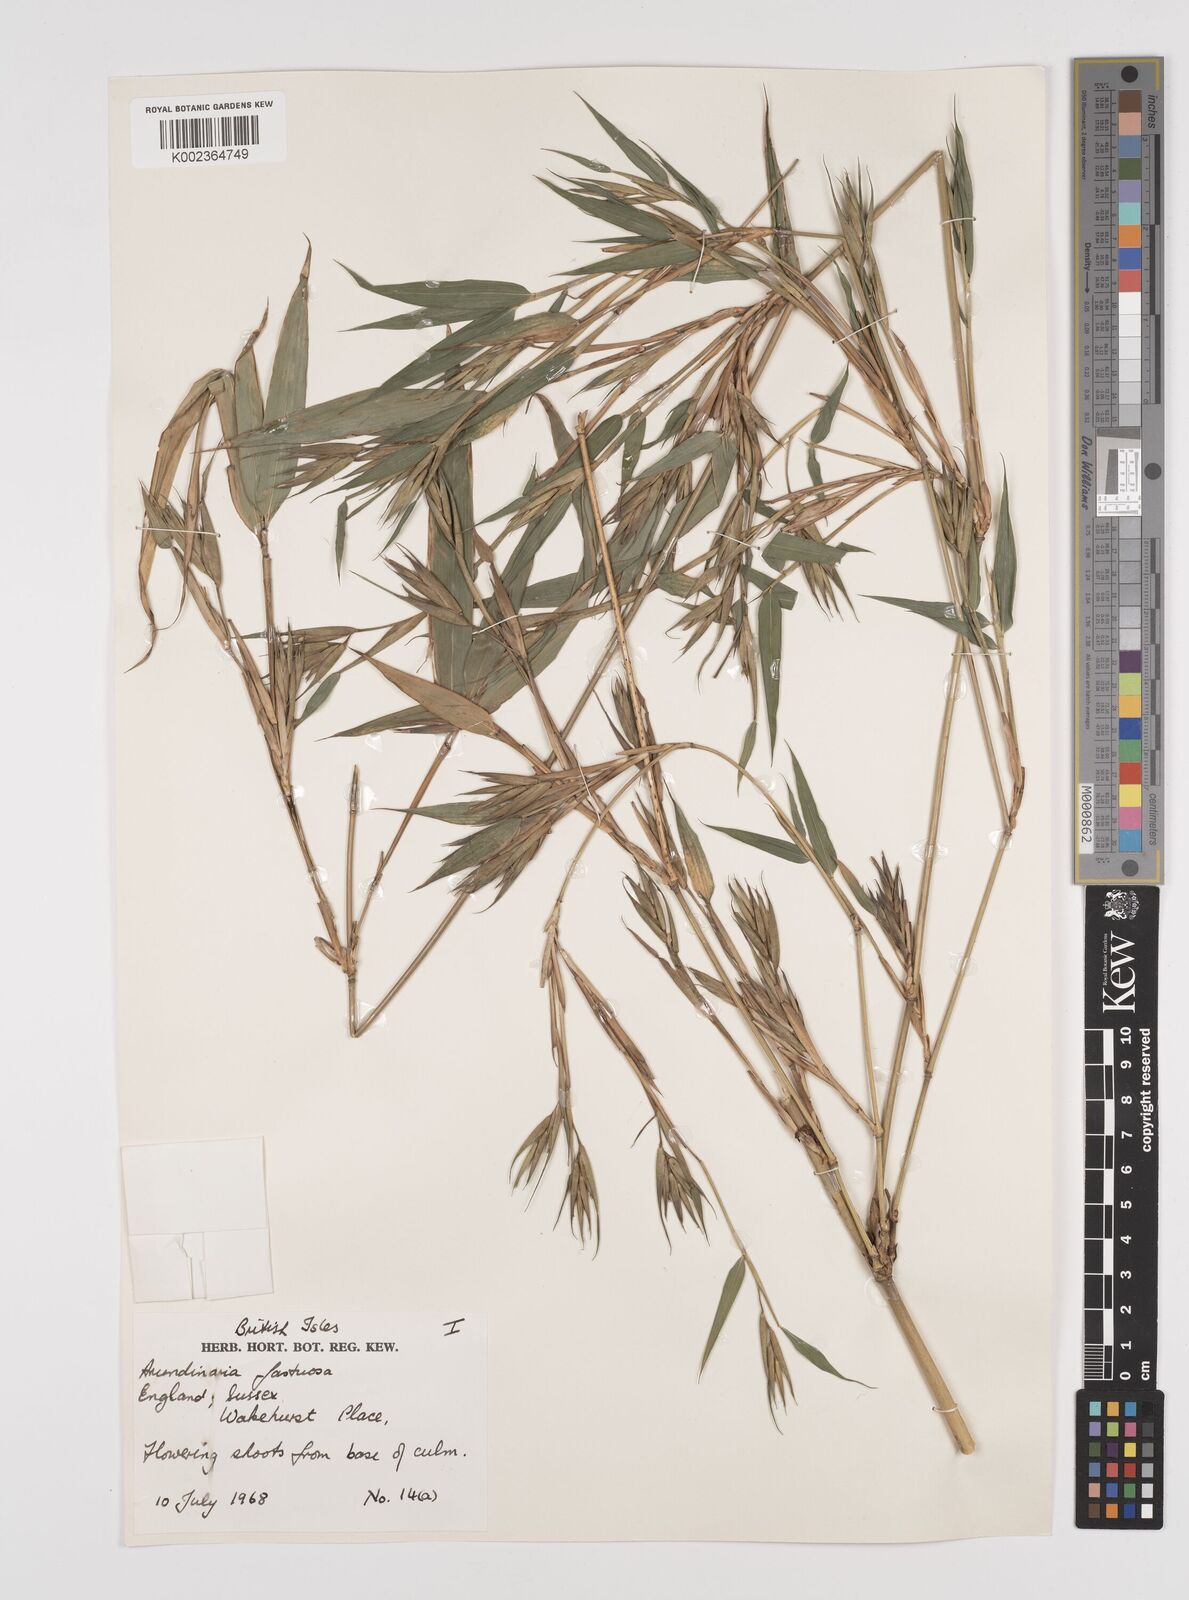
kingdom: Plantae
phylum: Tracheophyta
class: Liliopsida
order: Poales
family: Poaceae
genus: Semiarundinaria
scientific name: Semiarundinaria fastuosa
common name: Narihira bamboo
